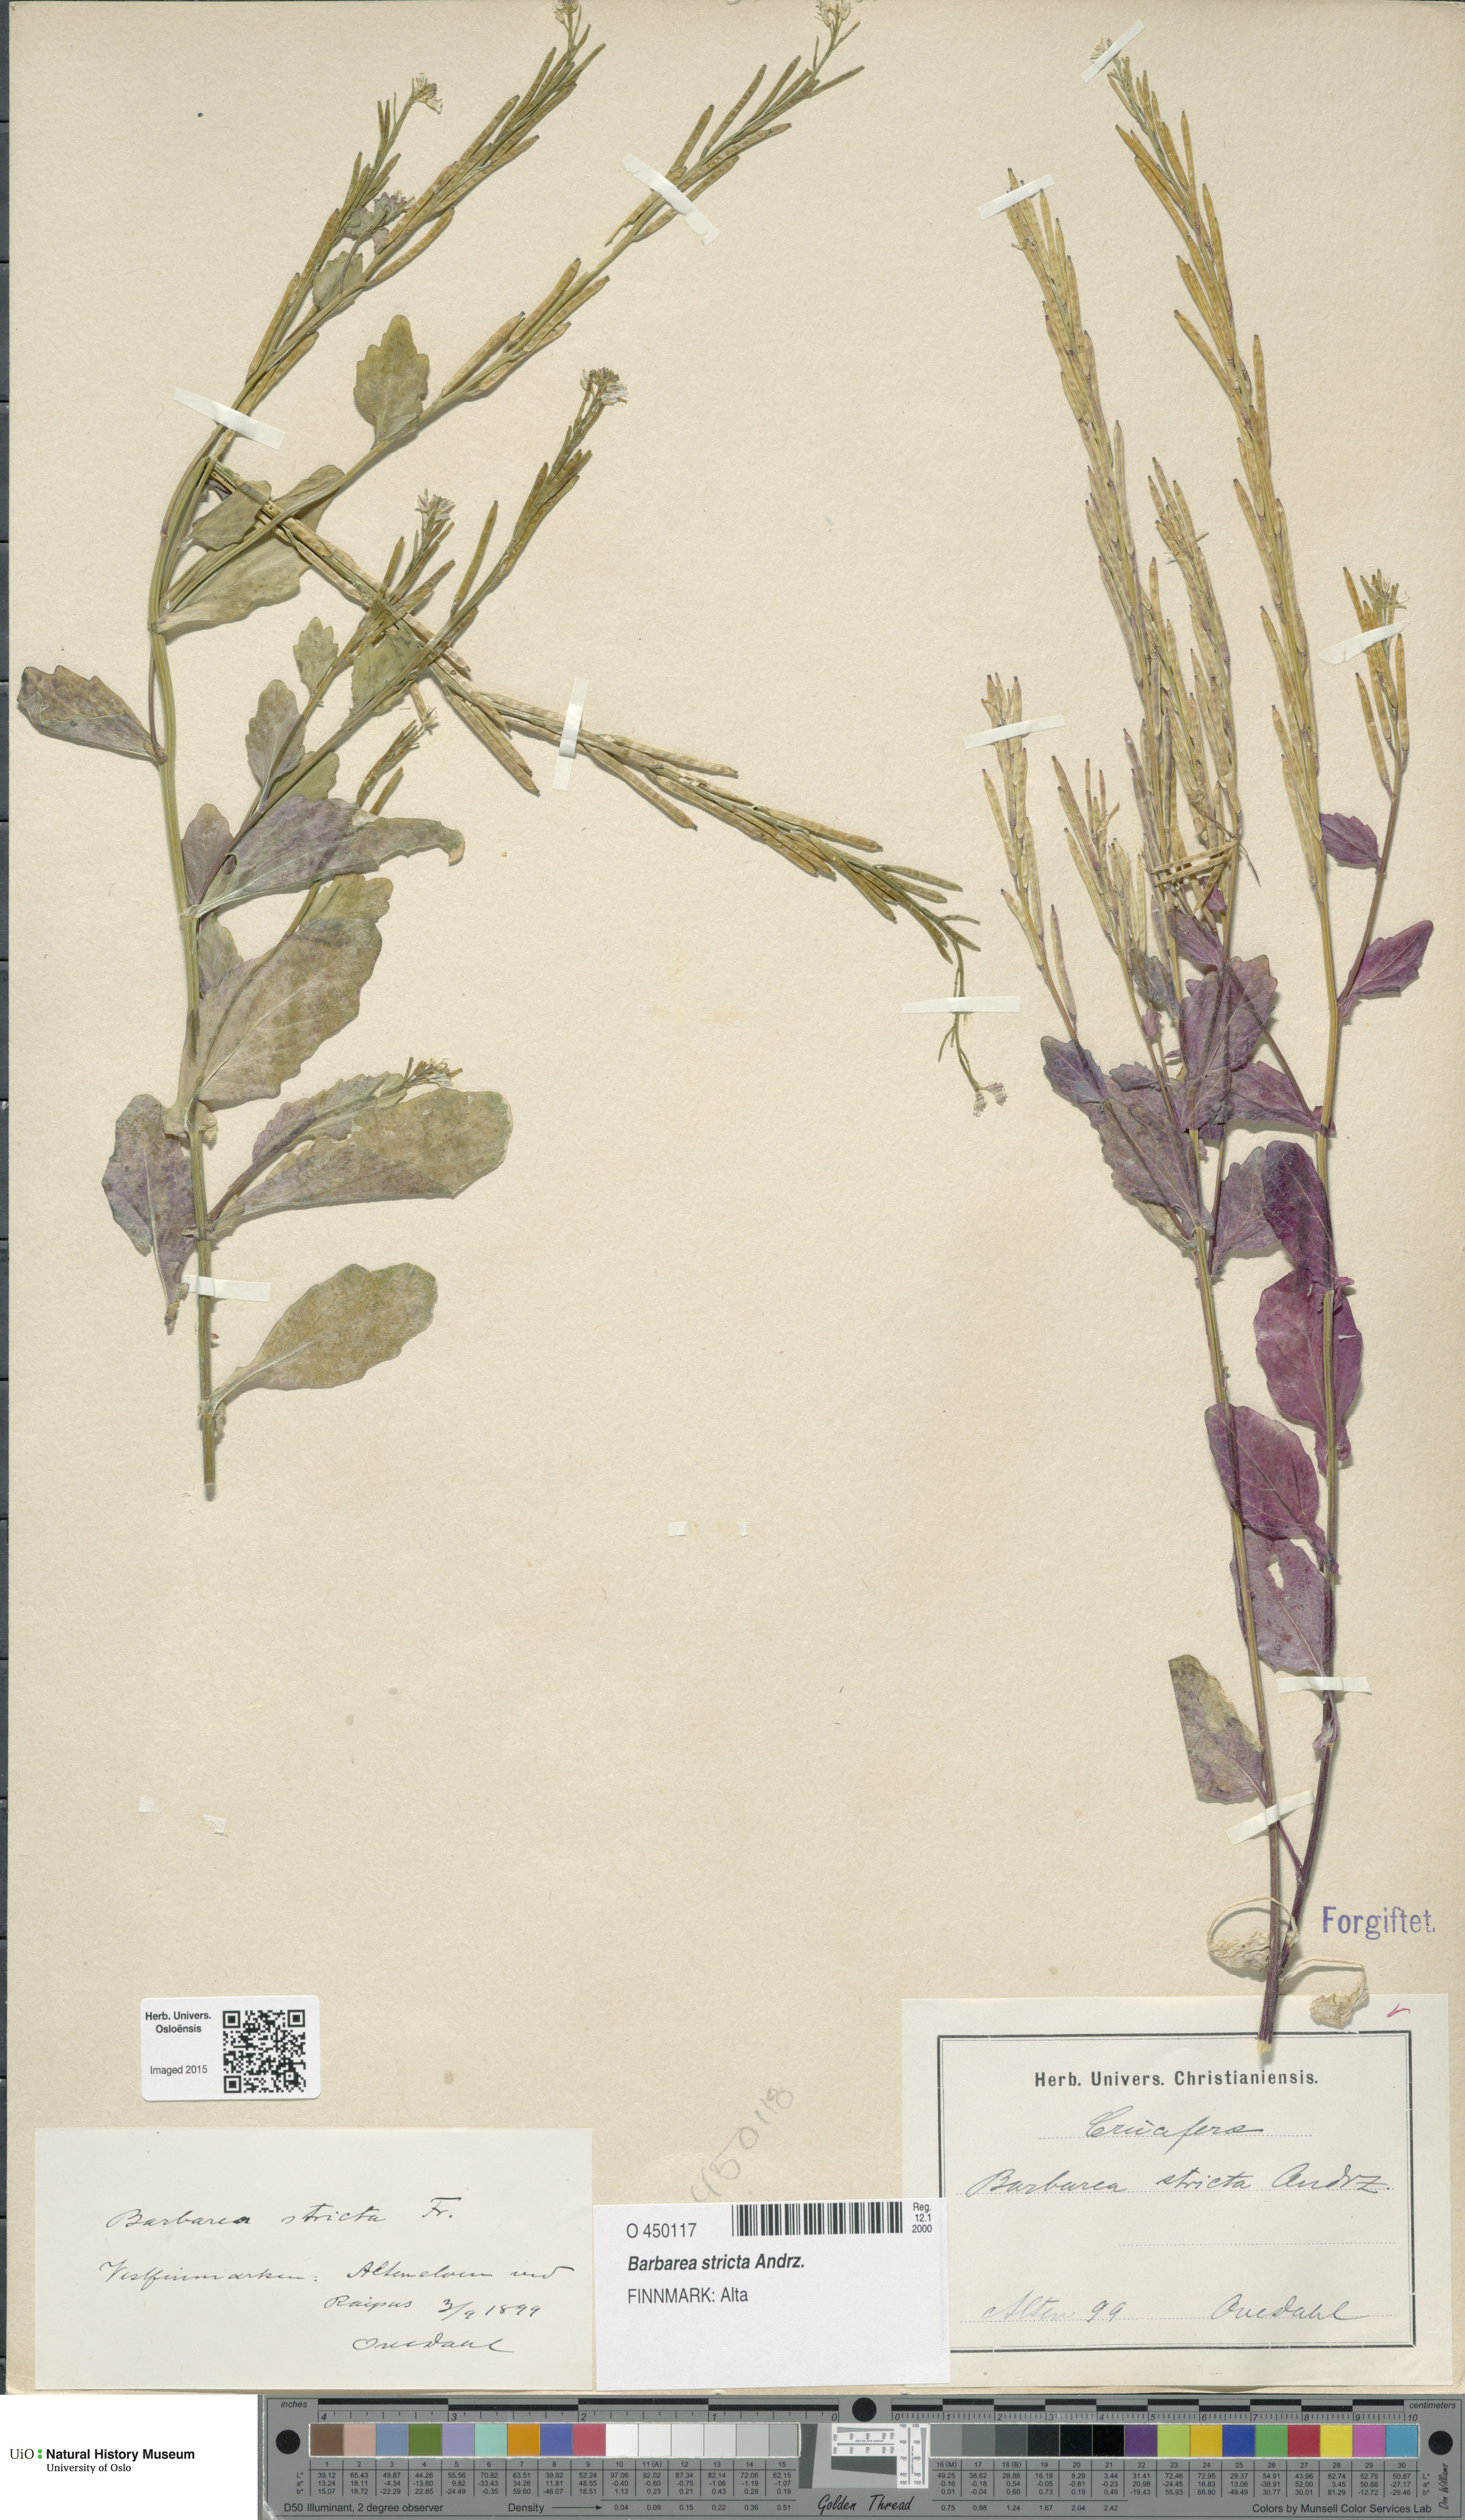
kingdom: Plantae
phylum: Tracheophyta
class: Magnoliopsida
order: Brassicales
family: Brassicaceae
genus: Barbarea
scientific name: Barbarea stricta
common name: Small-flowered winter-cress
